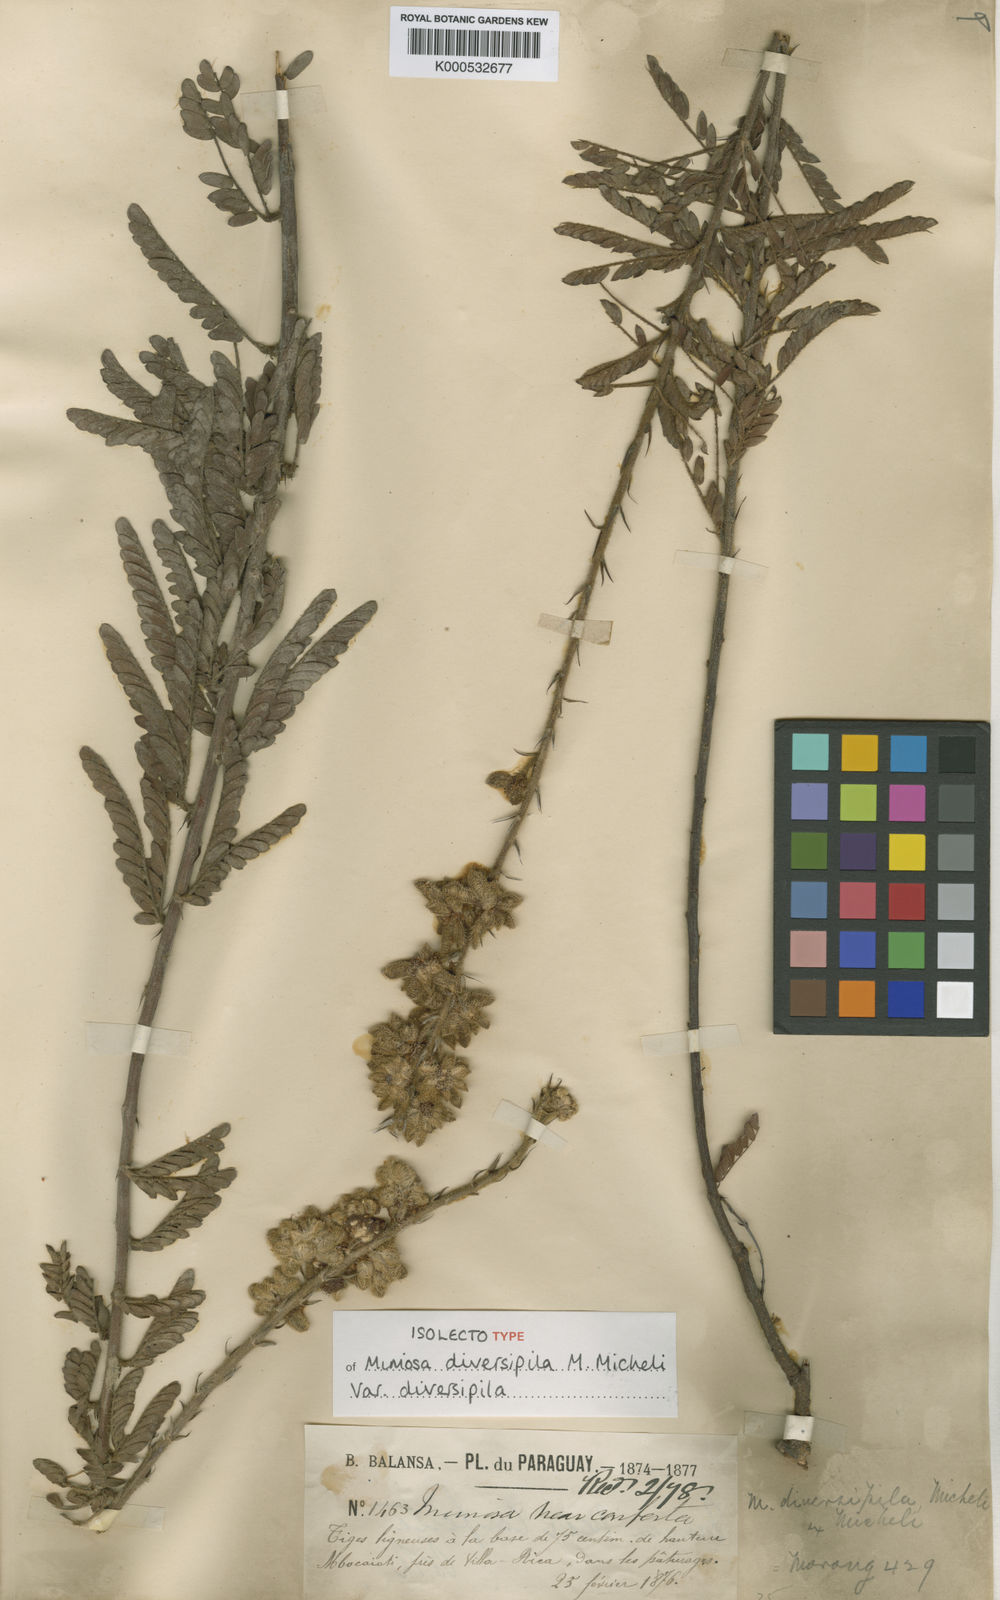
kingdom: Plantae
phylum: Tracheophyta
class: Magnoliopsida
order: Fabales
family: Fabaceae
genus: Mimosa
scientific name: Mimosa diversipila
